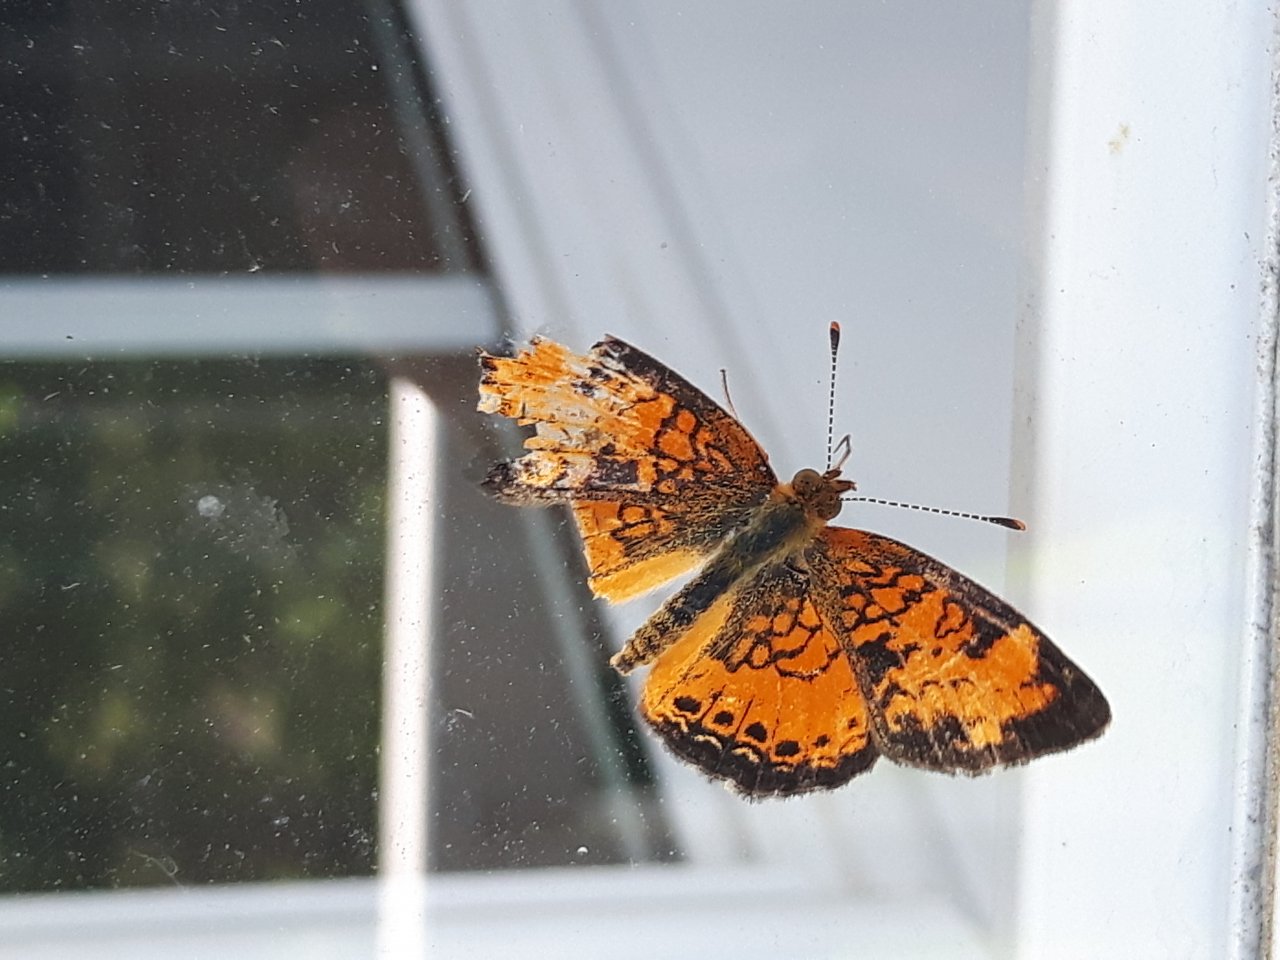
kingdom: Animalia
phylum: Arthropoda
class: Insecta
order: Lepidoptera
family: Nymphalidae
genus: Phyciodes
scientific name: Phyciodes tharos
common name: Northern Crescent
